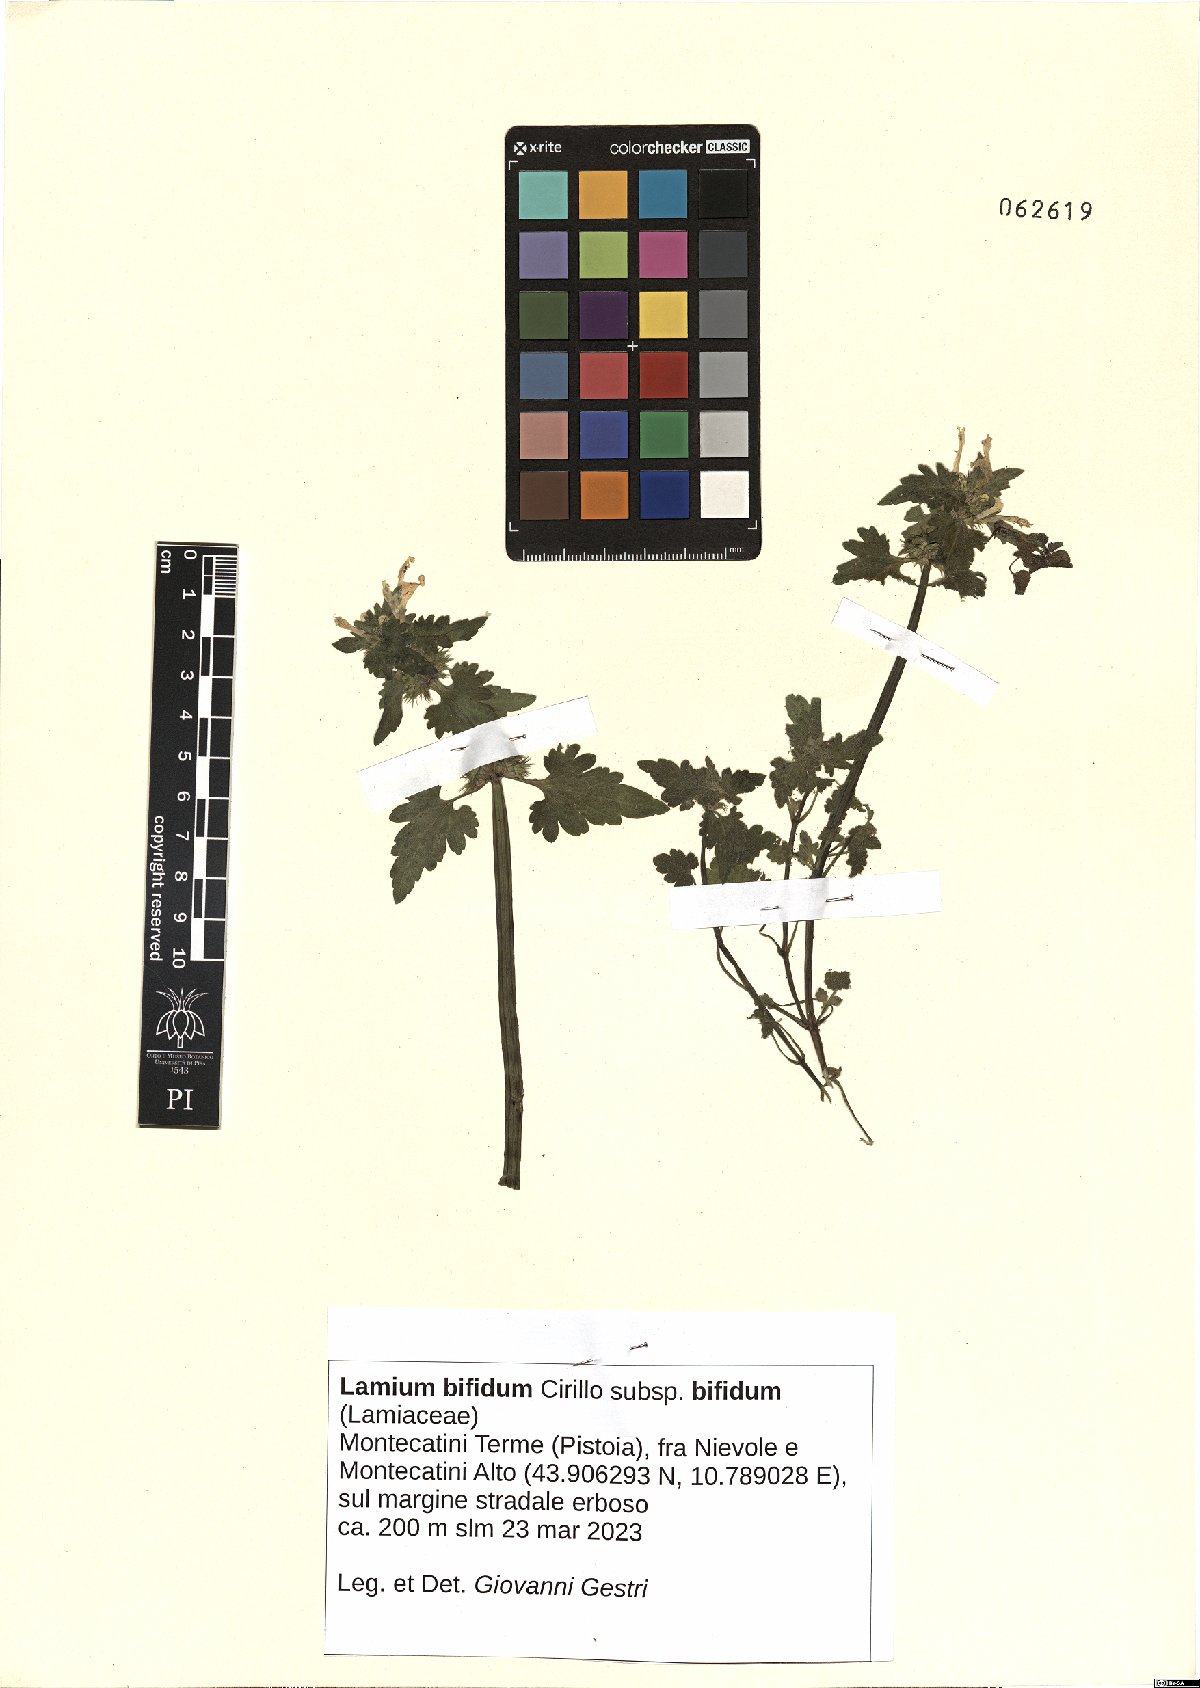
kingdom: Plantae
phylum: Tracheophyta
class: Magnoliopsida
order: Lamiales
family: Lamiaceae
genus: Lamium
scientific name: Lamium bifidum
